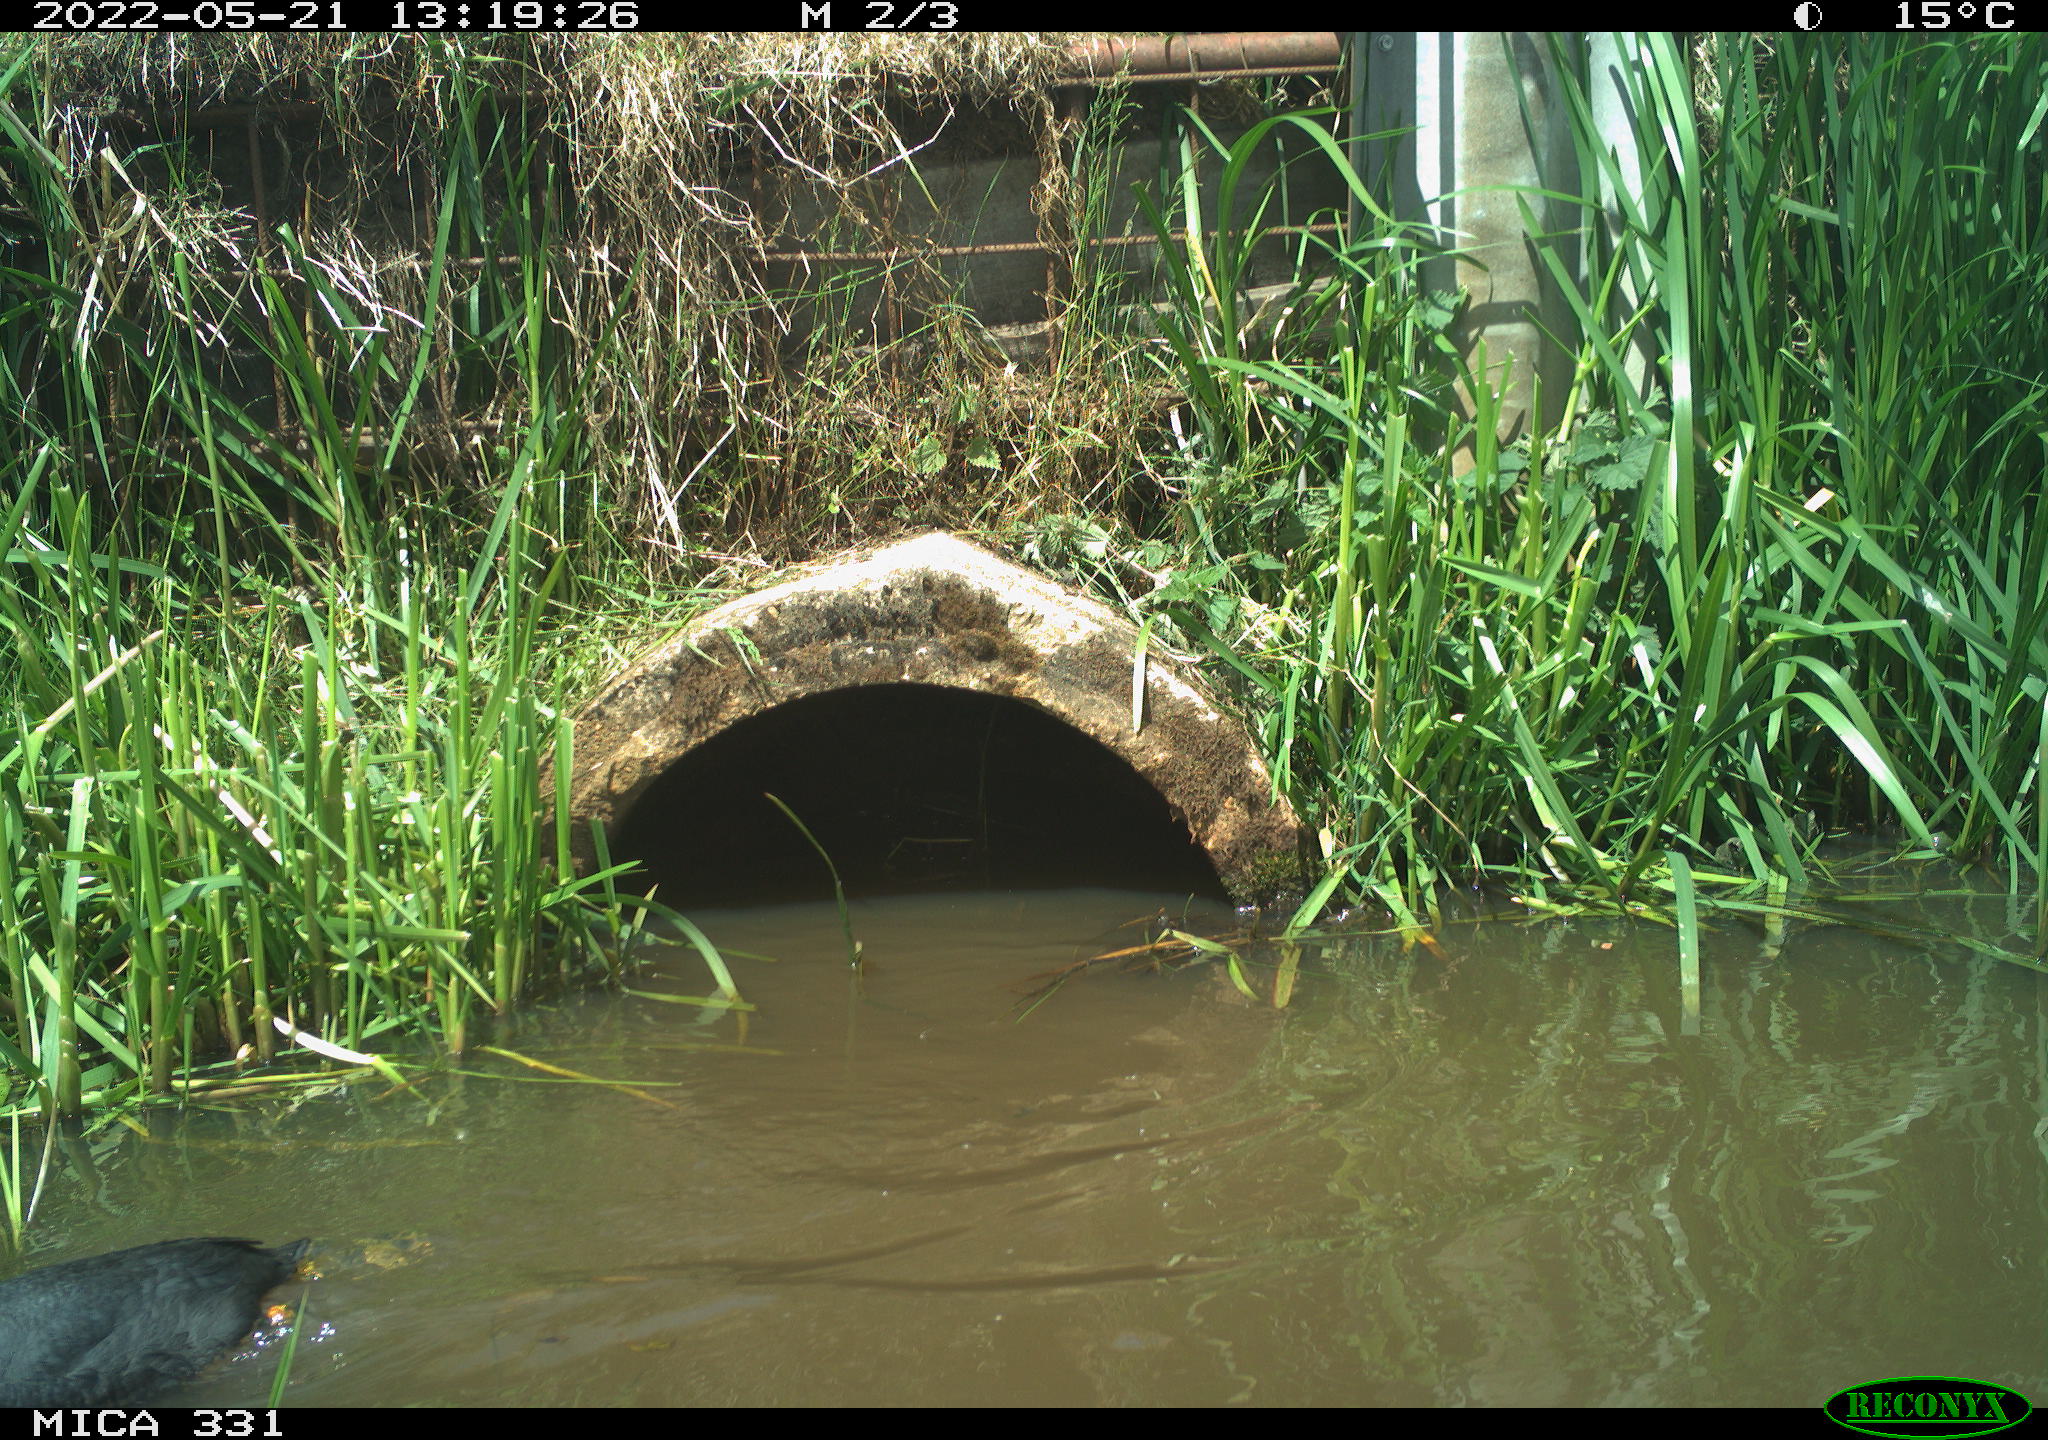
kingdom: Animalia
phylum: Chordata
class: Aves
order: Gruiformes
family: Rallidae
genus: Fulica
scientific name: Fulica atra
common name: Eurasian coot
